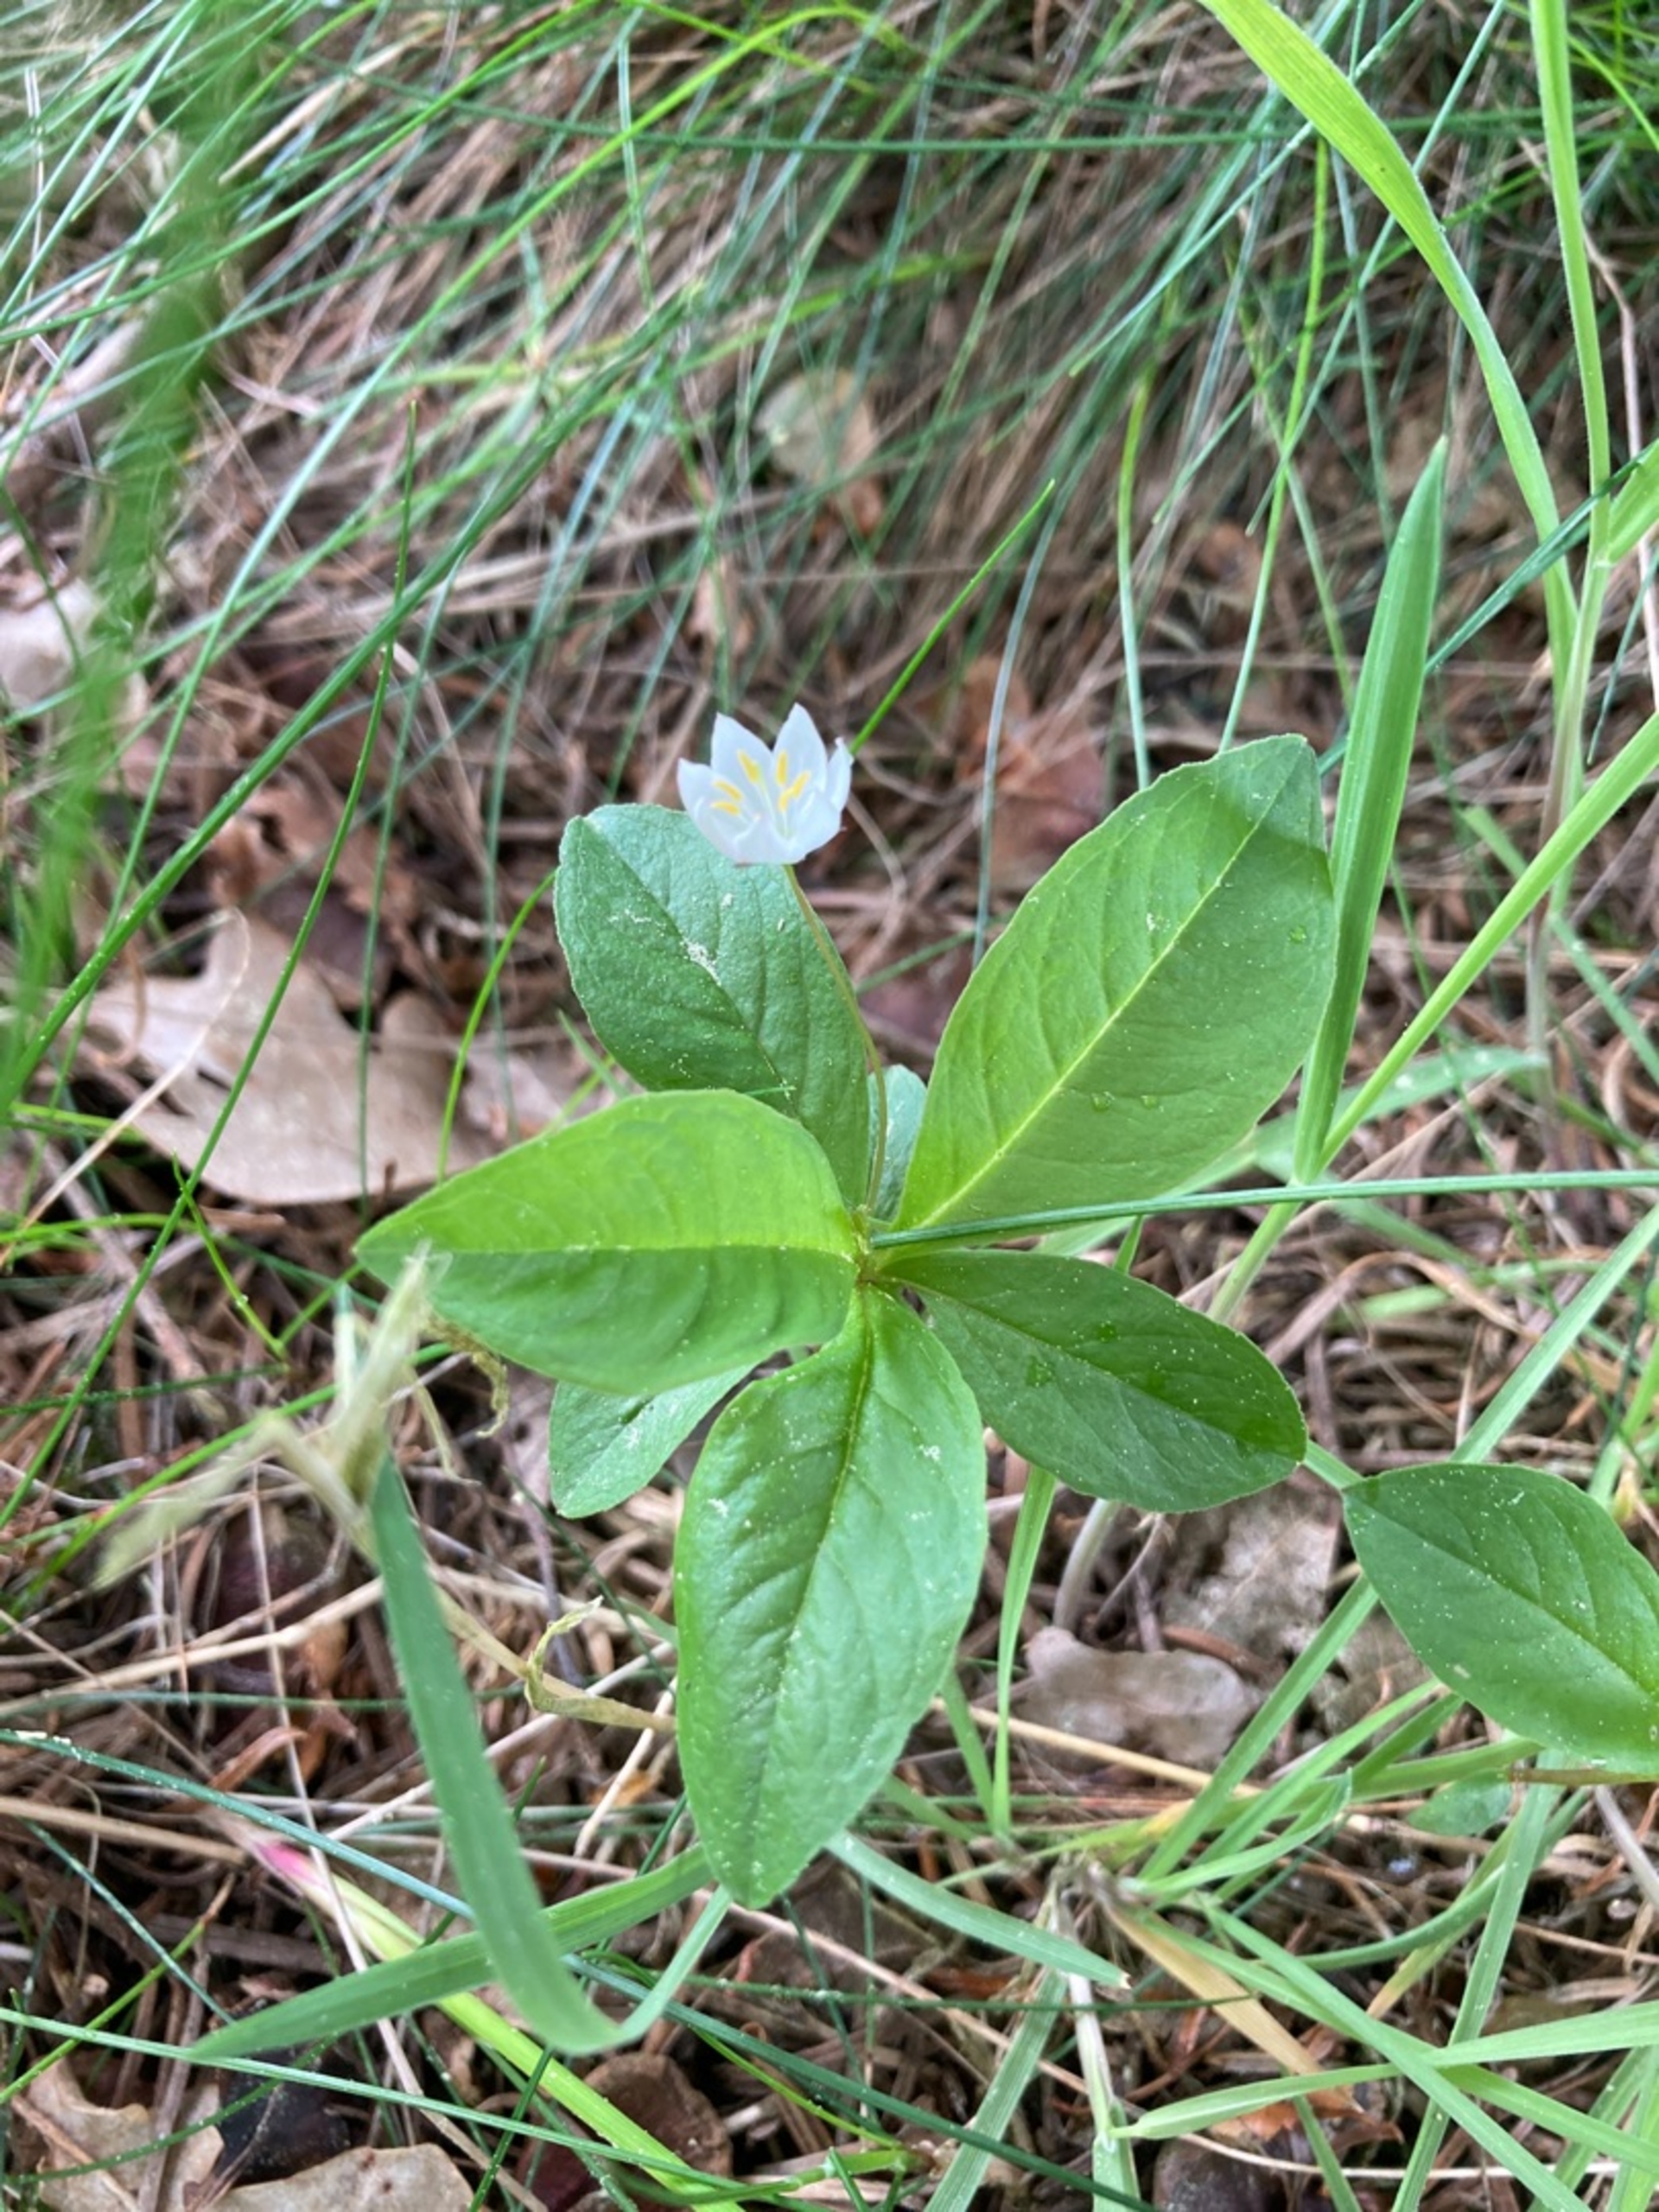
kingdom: Plantae
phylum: Tracheophyta
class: Magnoliopsida
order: Ericales
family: Primulaceae
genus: Lysimachia
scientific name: Lysimachia europaea
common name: Skovstjerne
